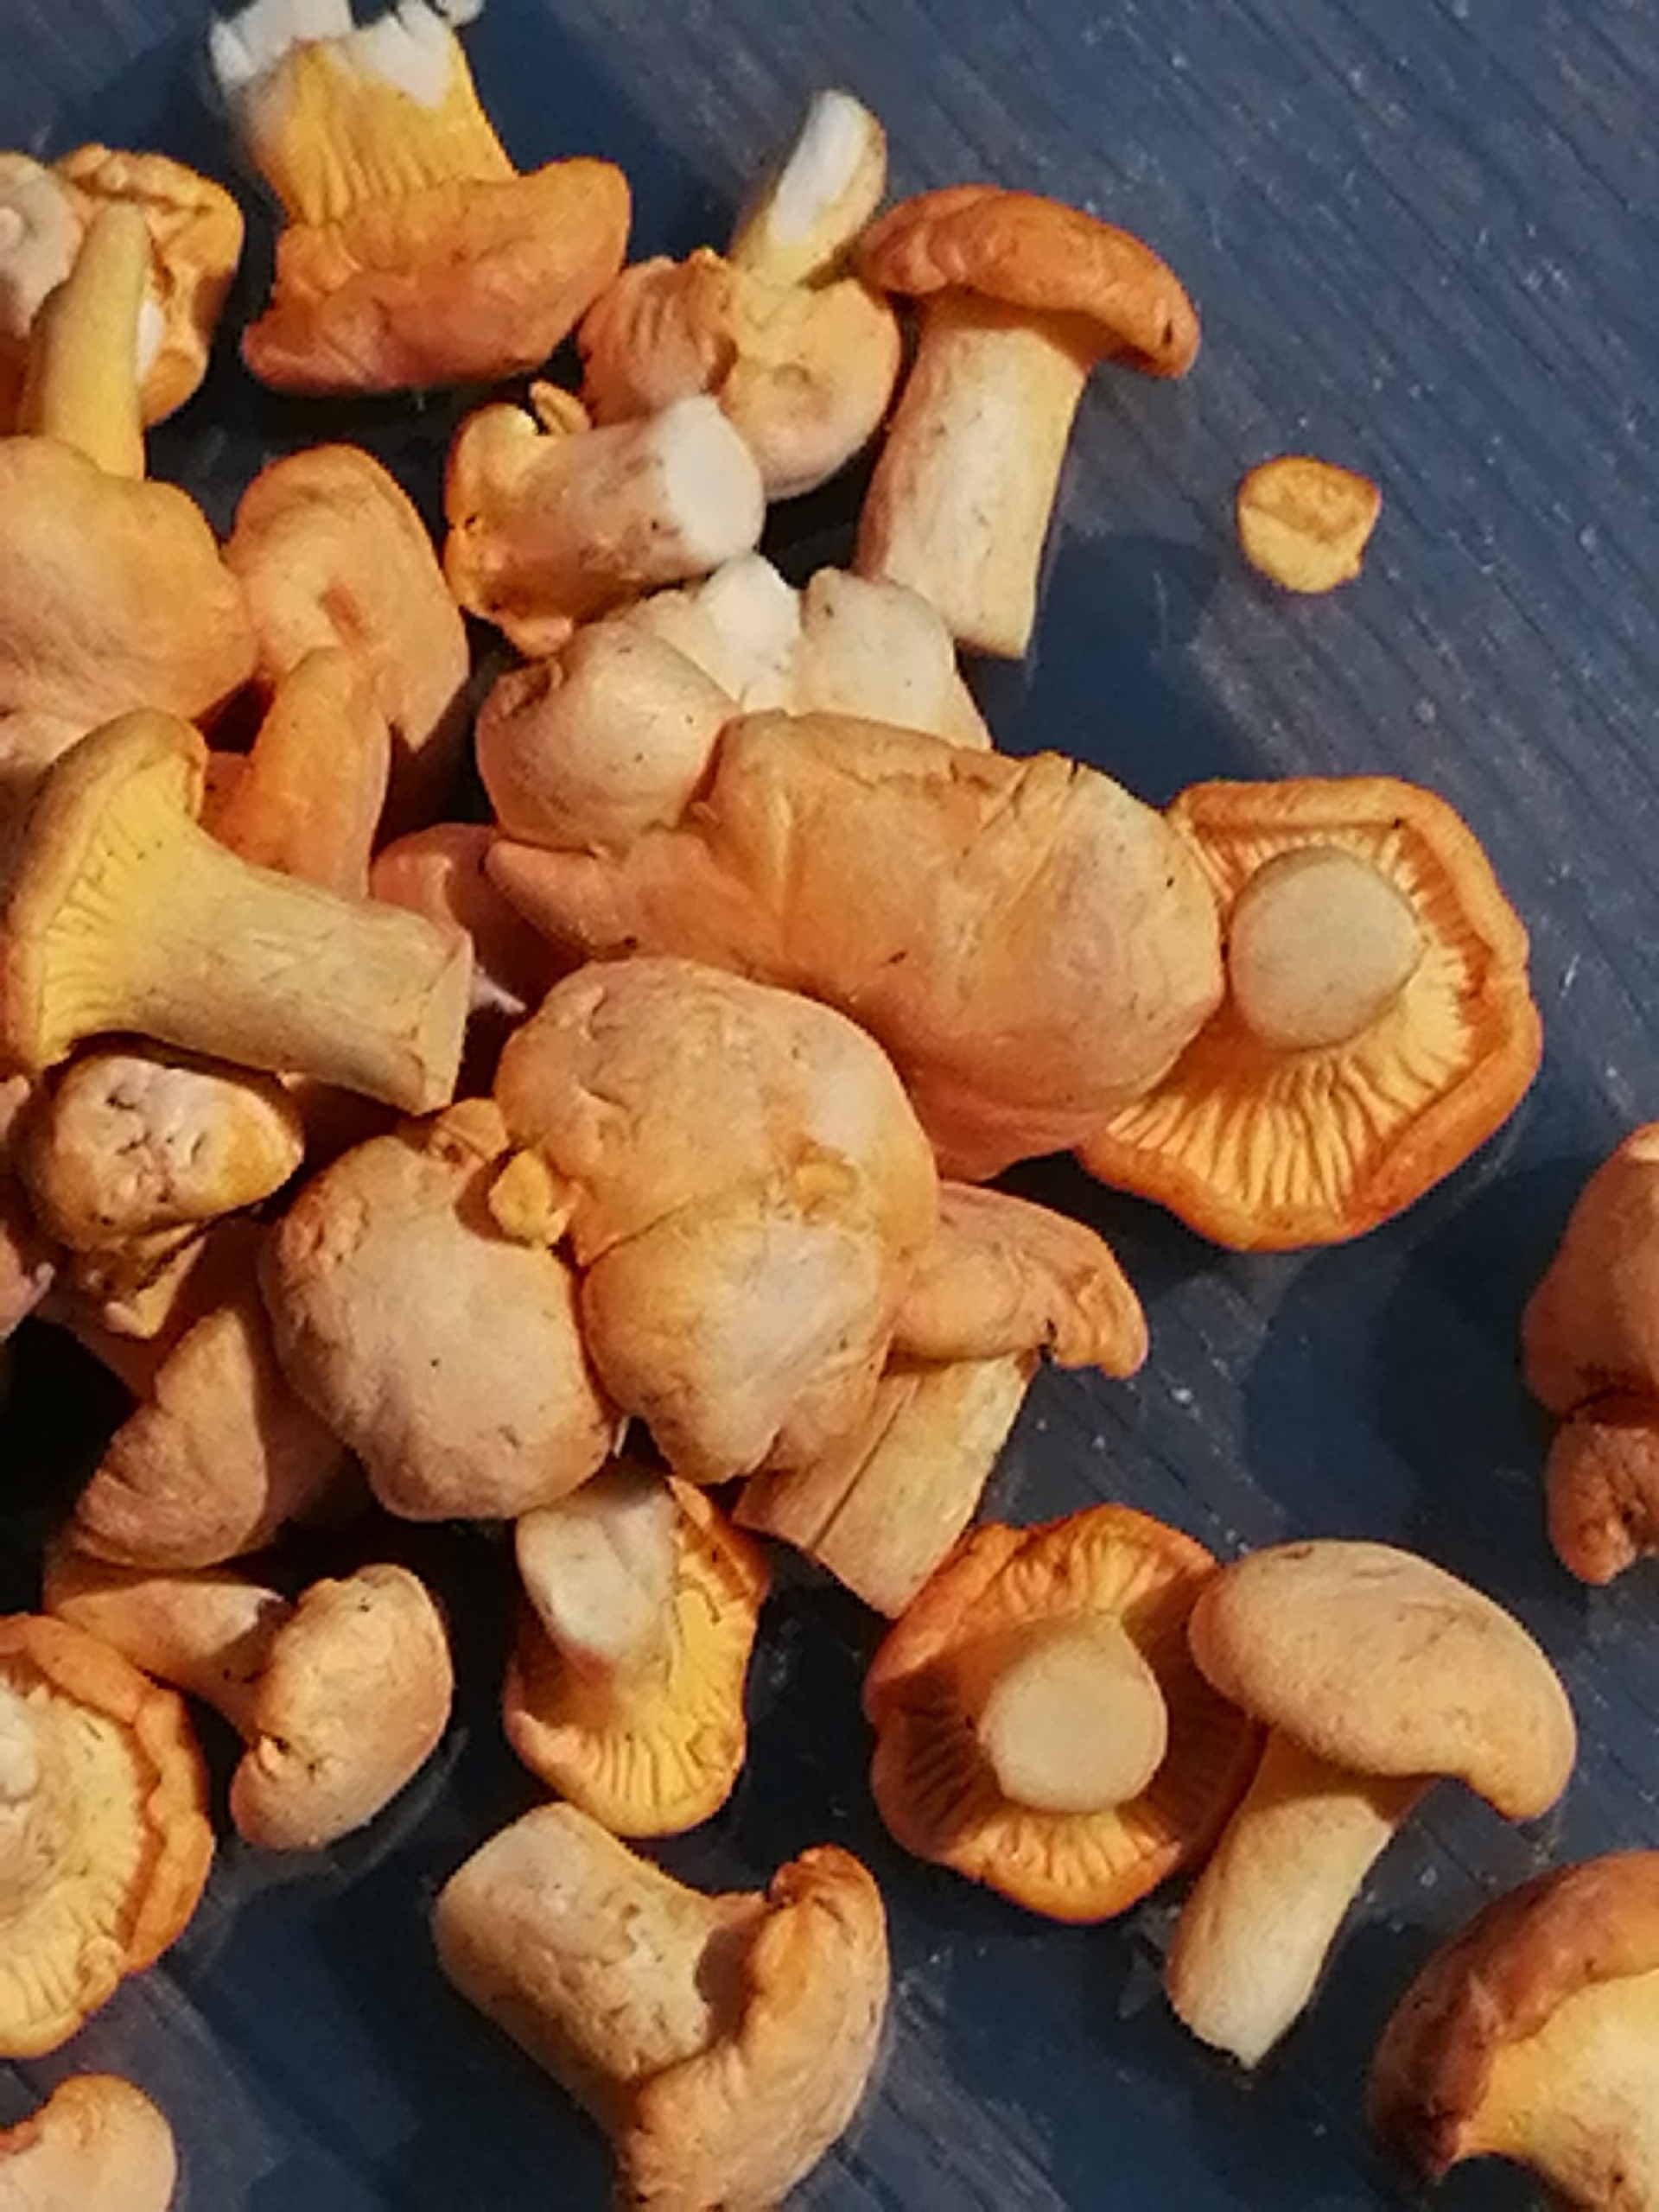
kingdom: Fungi
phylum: Basidiomycota
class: Agaricomycetes
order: Cantharellales
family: Hydnaceae
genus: Cantharellus
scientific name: Cantharellus cibarius
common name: Almindelig kantarel
